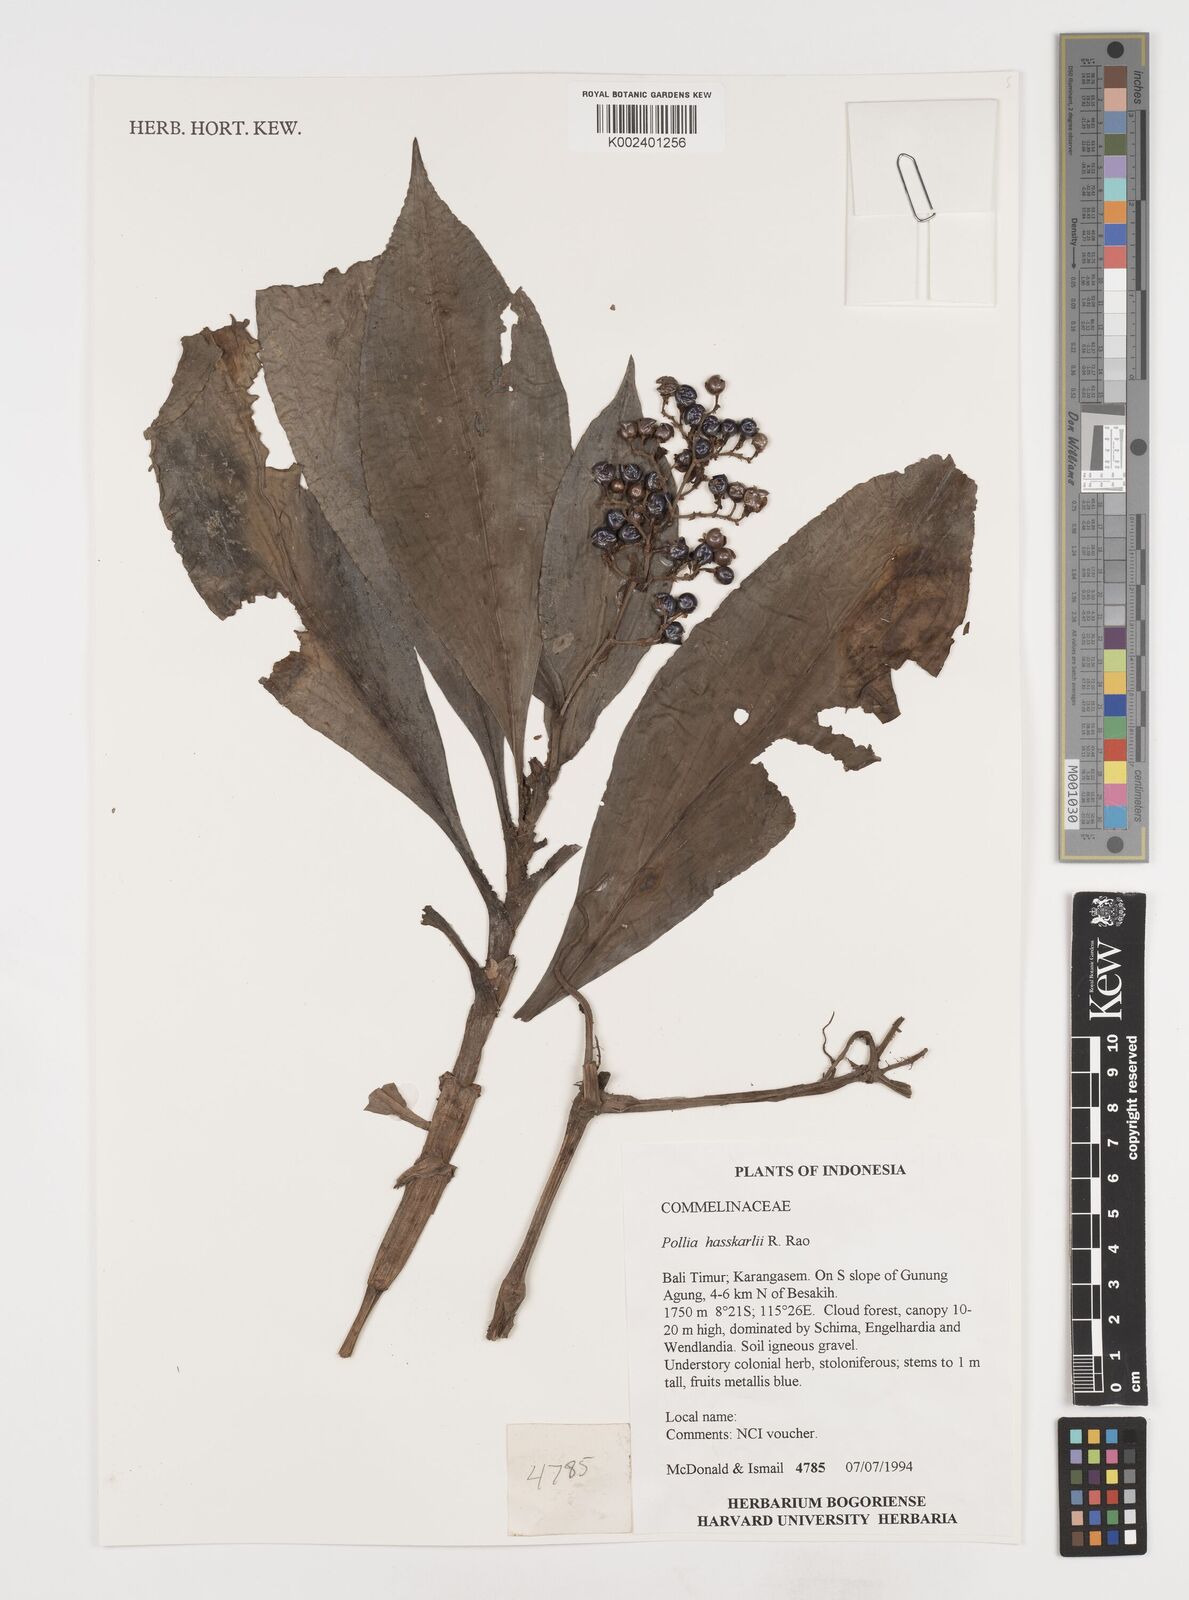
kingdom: Plantae
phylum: Tracheophyta
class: Liliopsida
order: Commelinales
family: Commelinaceae
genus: Pollia
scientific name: Pollia hasskarlii
